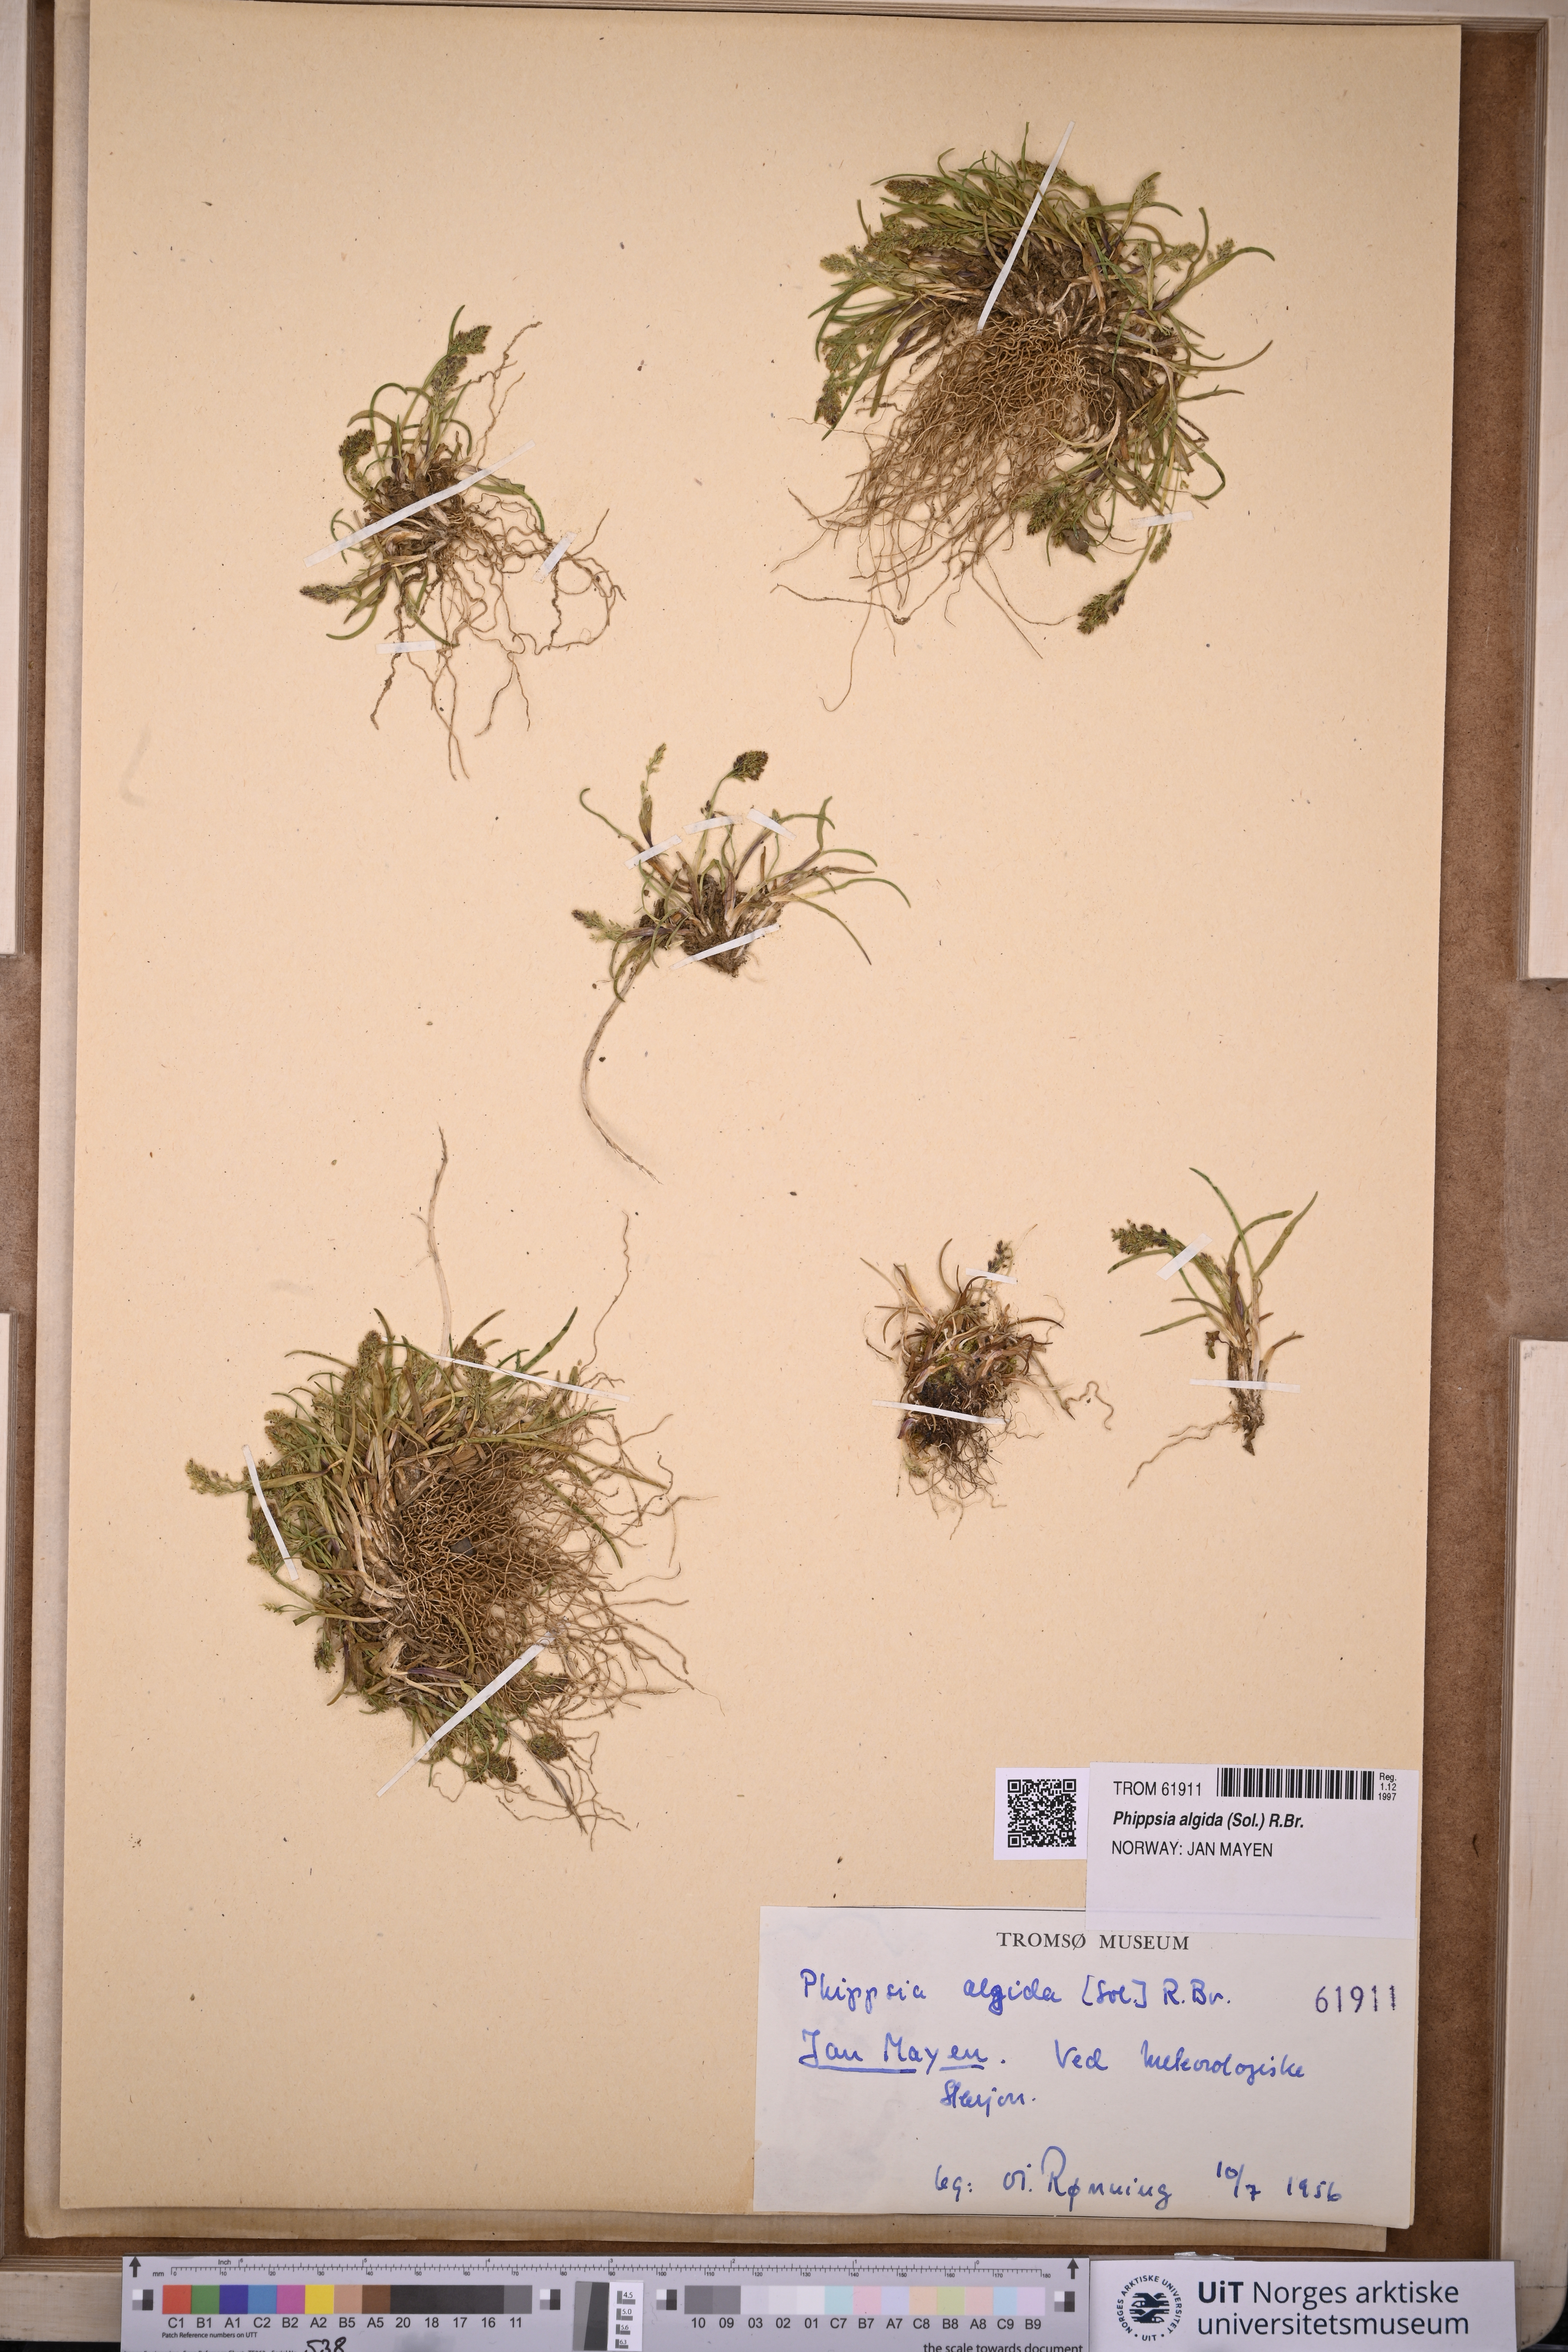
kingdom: Plantae
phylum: Tracheophyta
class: Liliopsida
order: Poales
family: Poaceae
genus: Phippsia
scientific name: Phippsia algida
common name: Ice grass
